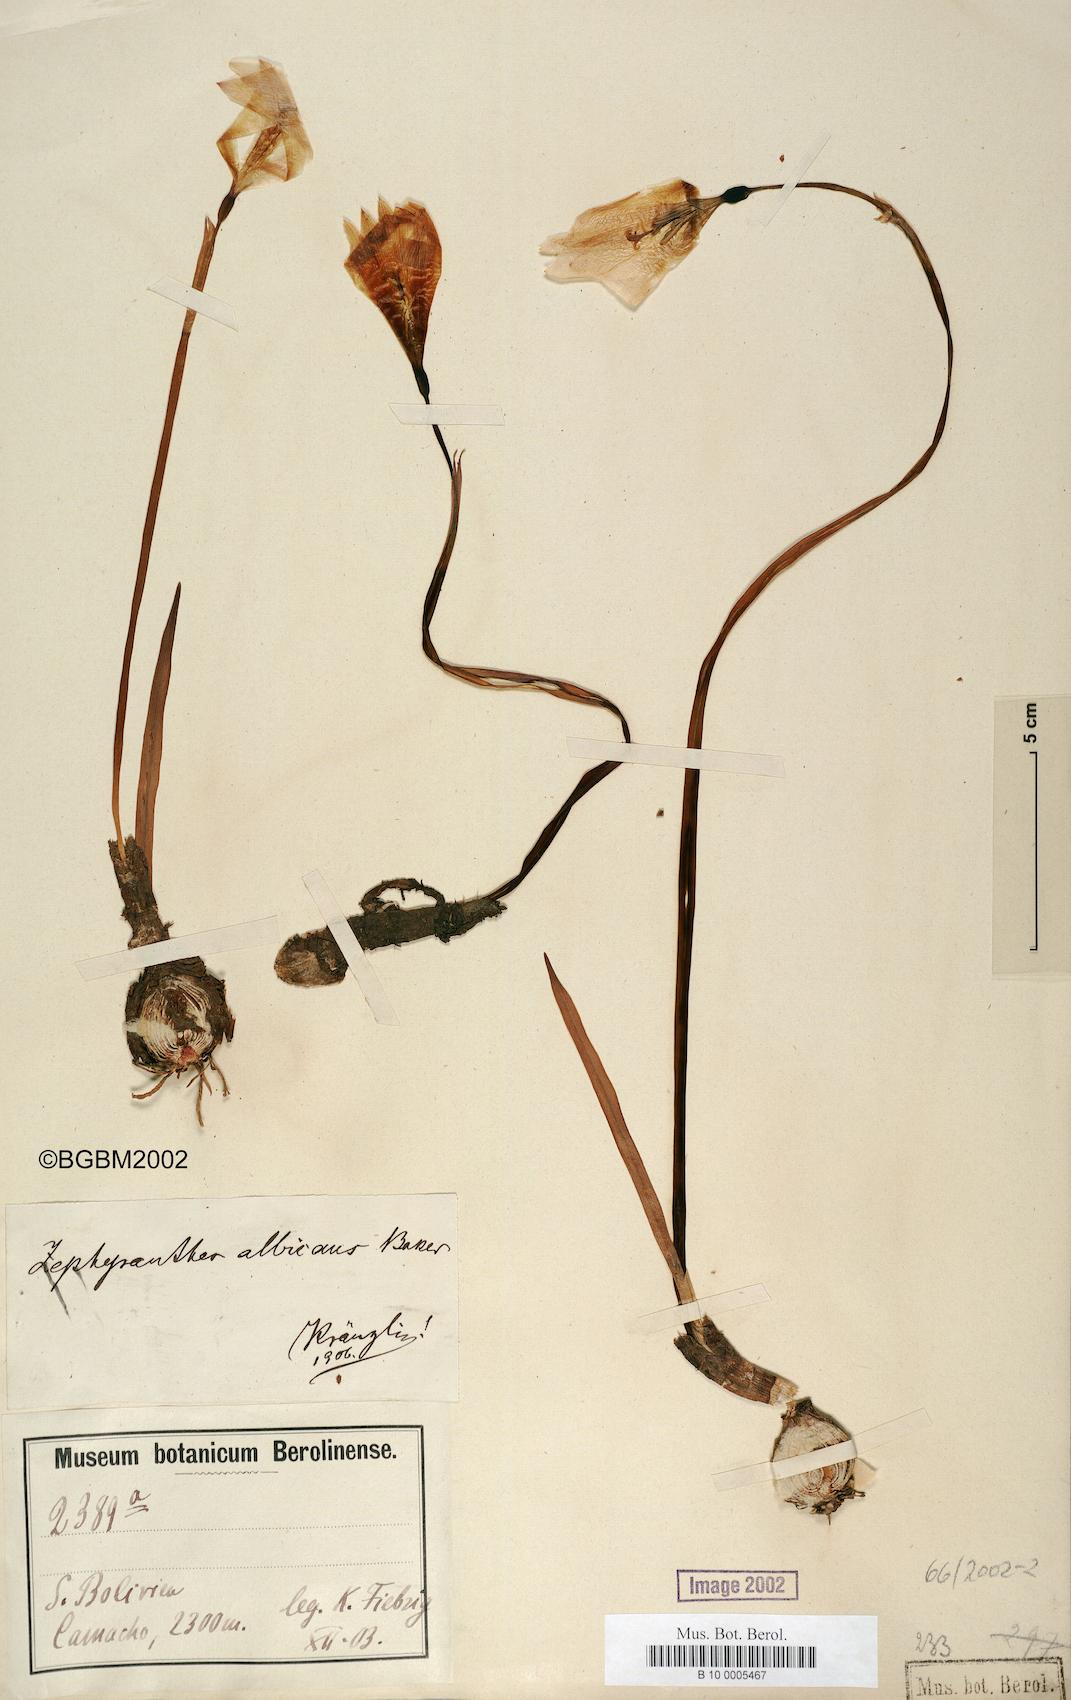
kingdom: Plantae
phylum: Tracheophyta
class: Liliopsida
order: Asparagales
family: Amaryllidaceae
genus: Pyrolirion
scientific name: Pyrolirion albicans
